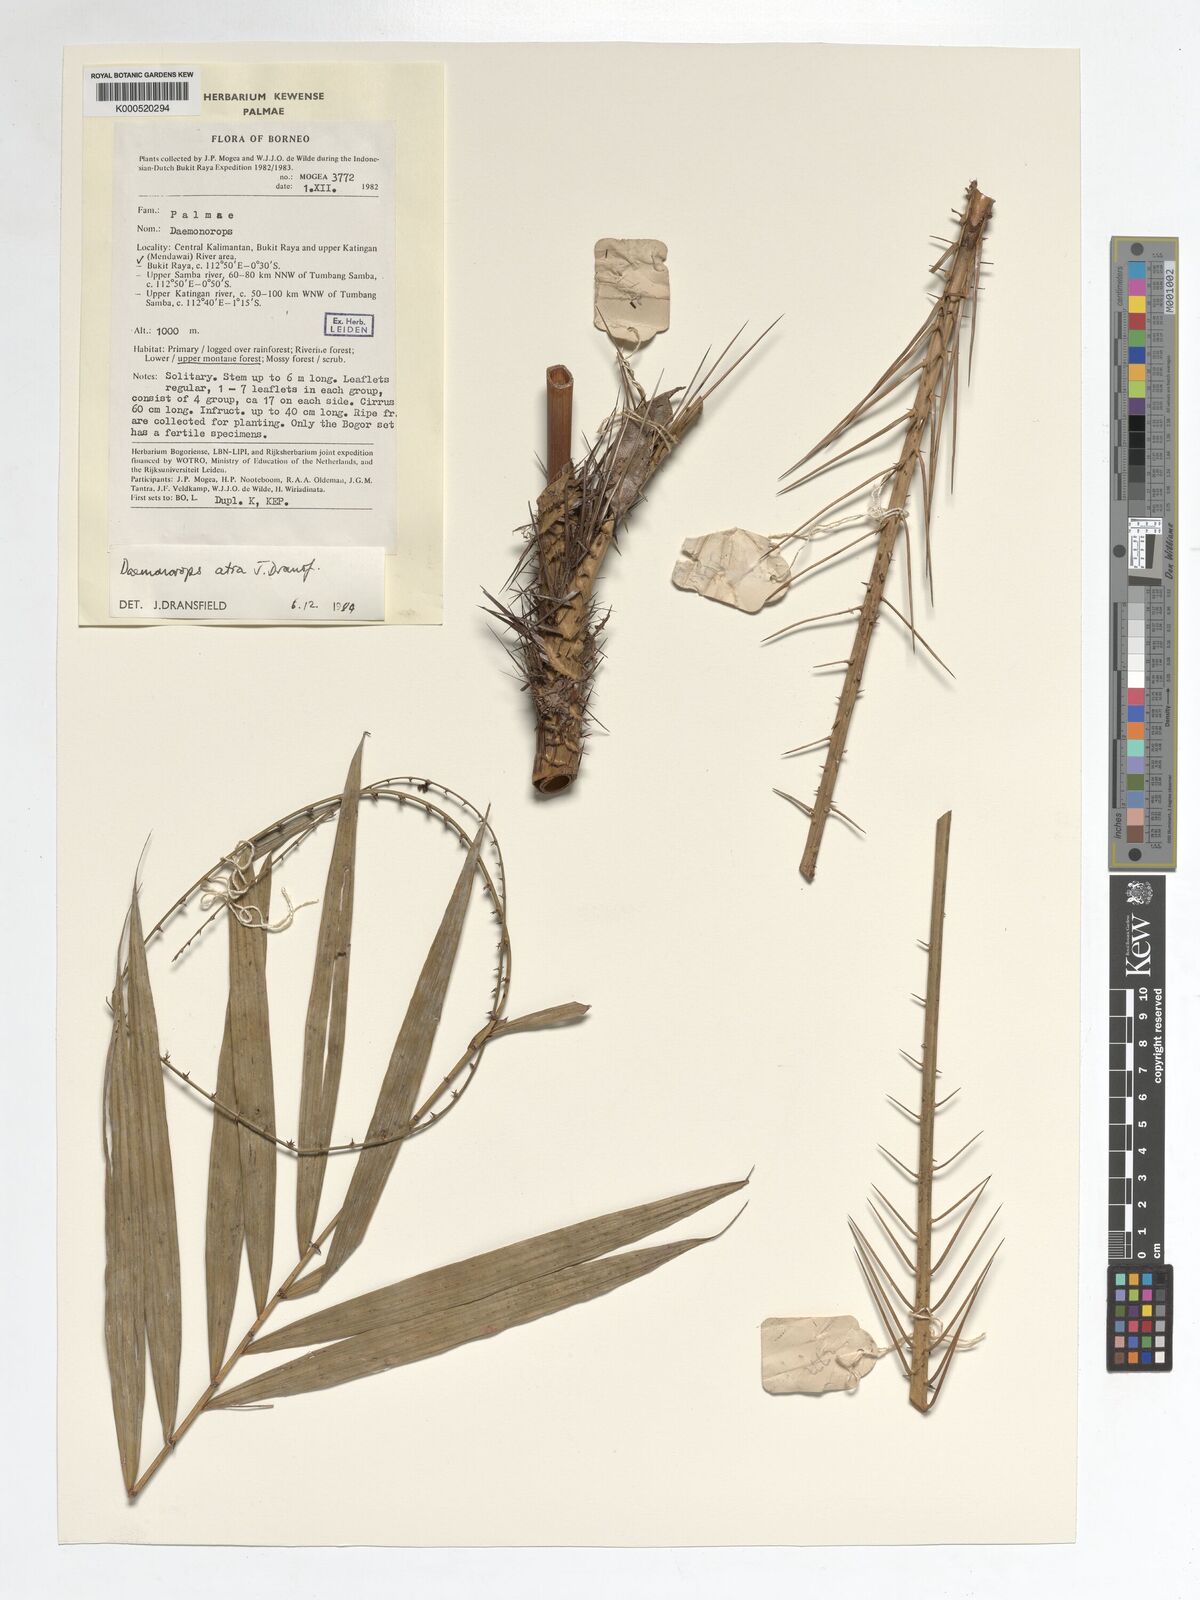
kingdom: Plantae
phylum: Tracheophyta
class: Liliopsida
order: Arecales
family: Arecaceae
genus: Calamus
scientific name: Calamus ater
